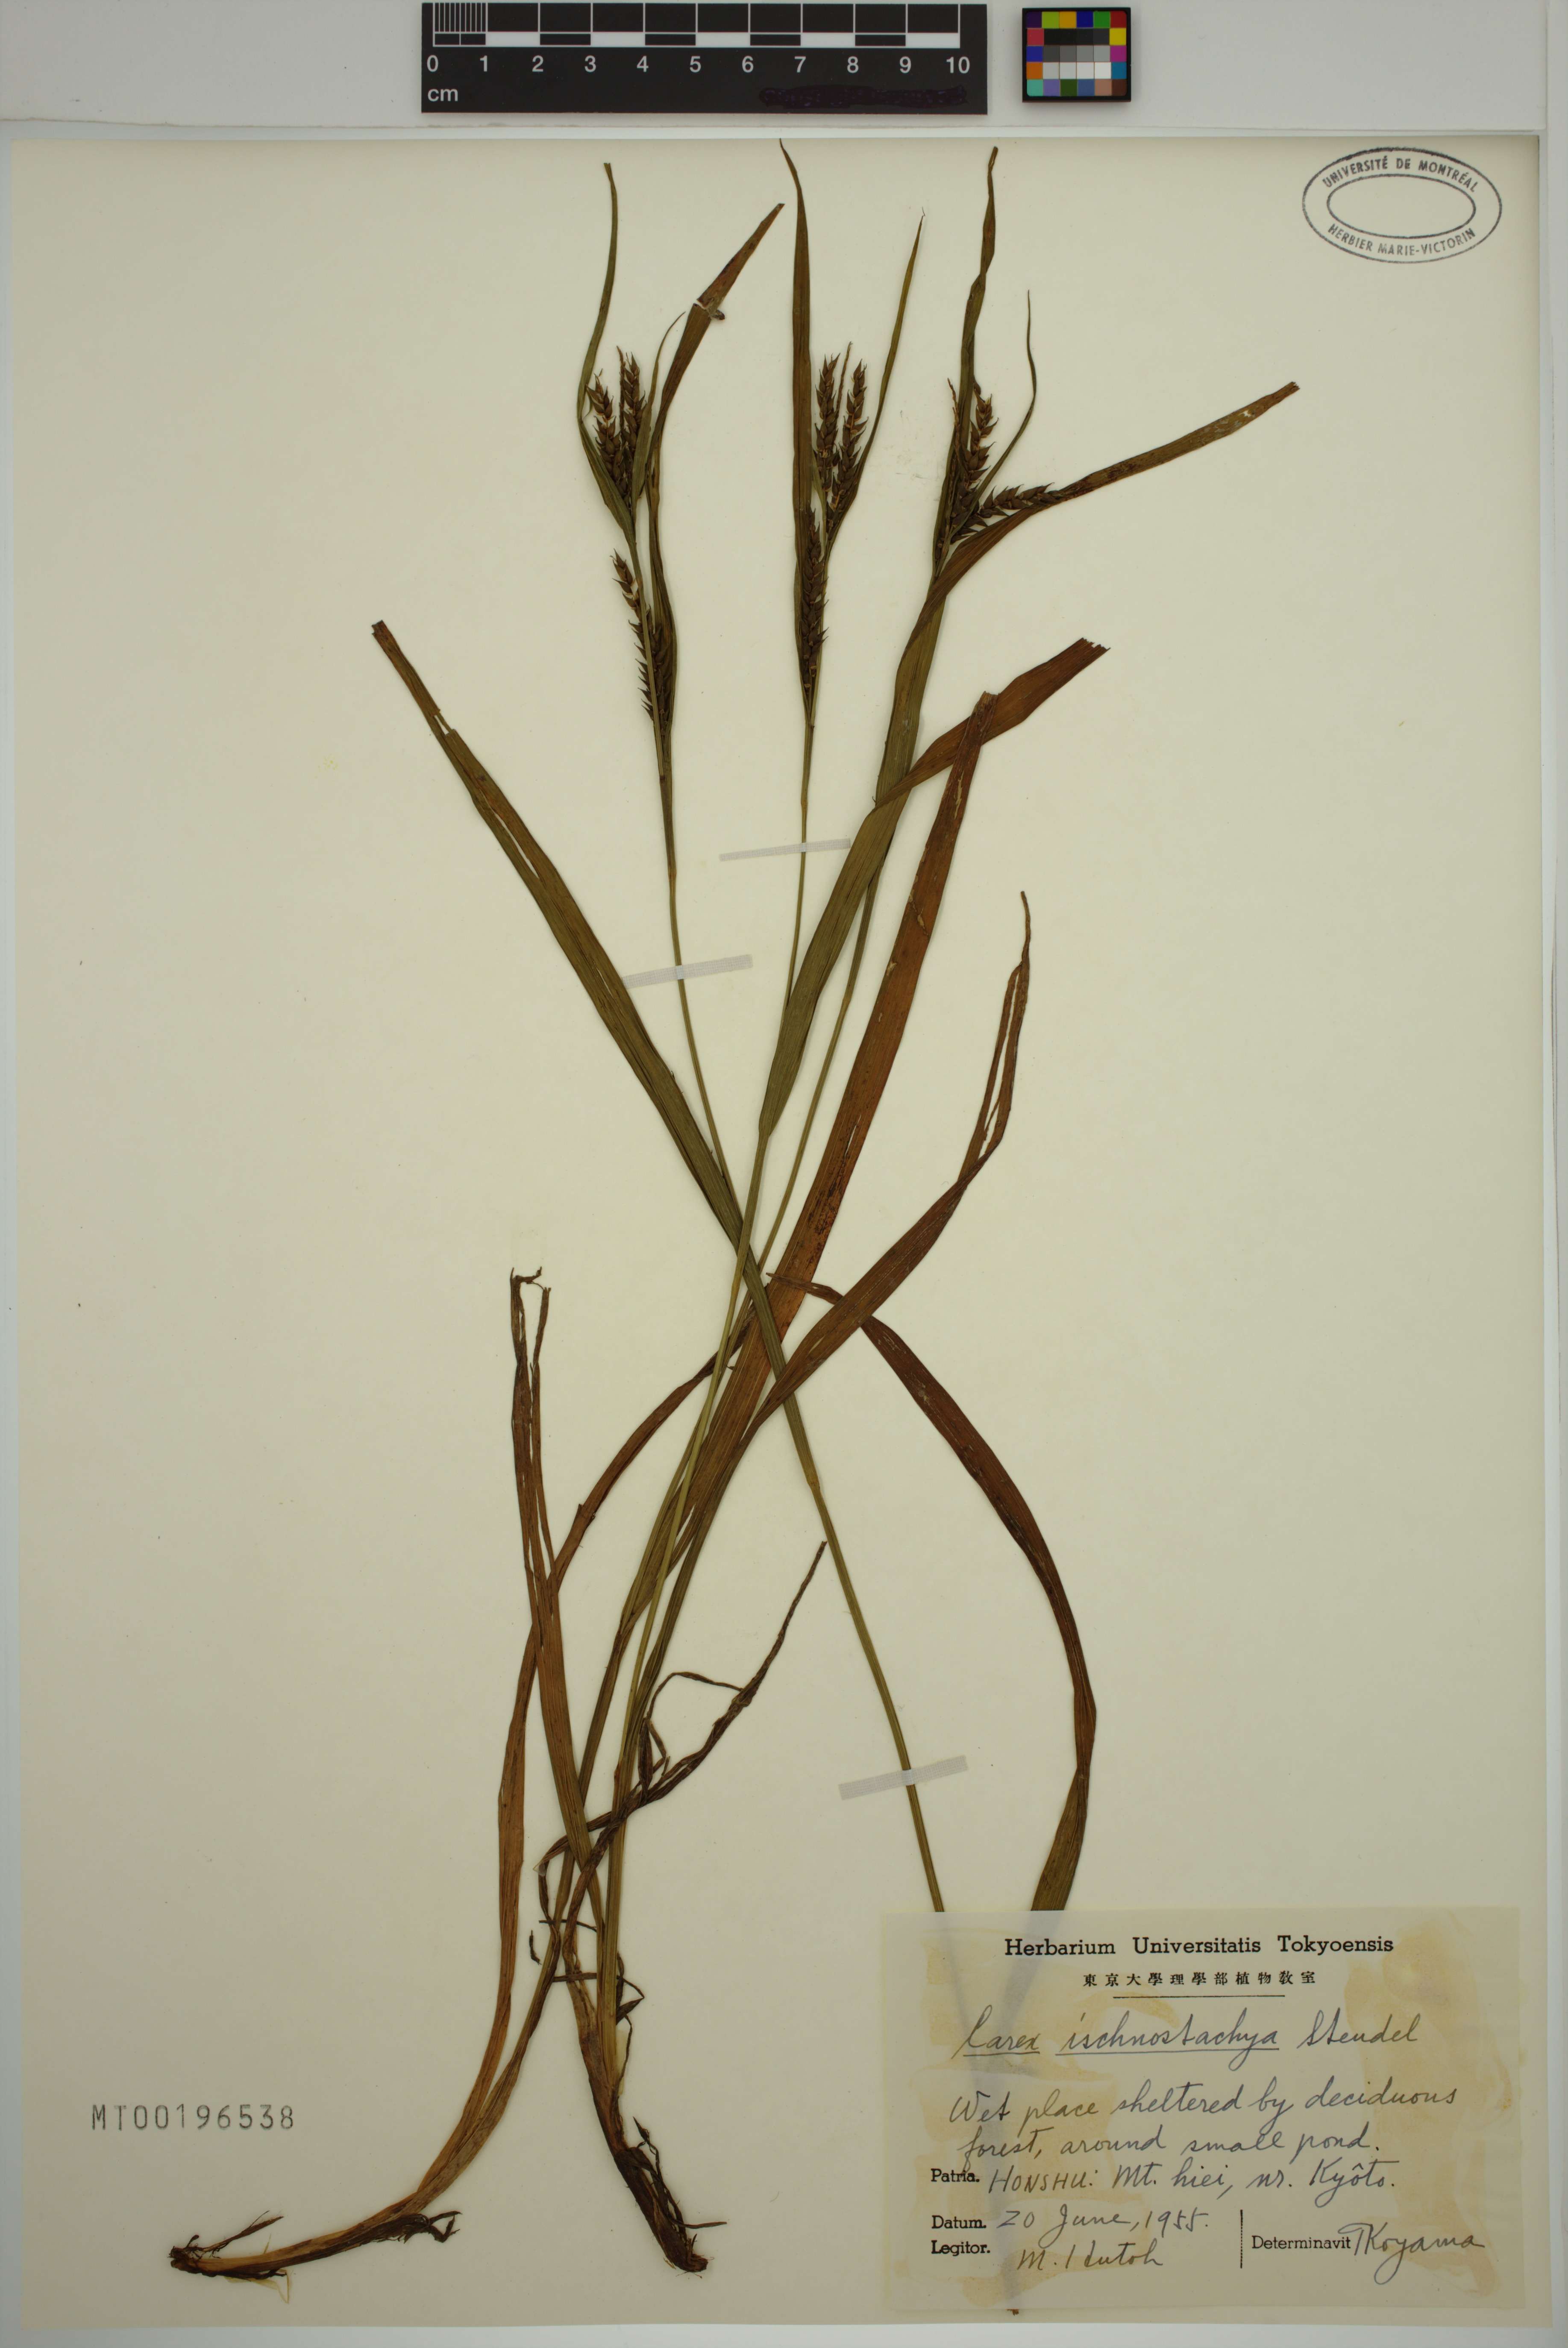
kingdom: Plantae
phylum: Tracheophyta
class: Liliopsida
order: Poales
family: Cyperaceae
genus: Carex
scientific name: Carex ischnostachya
